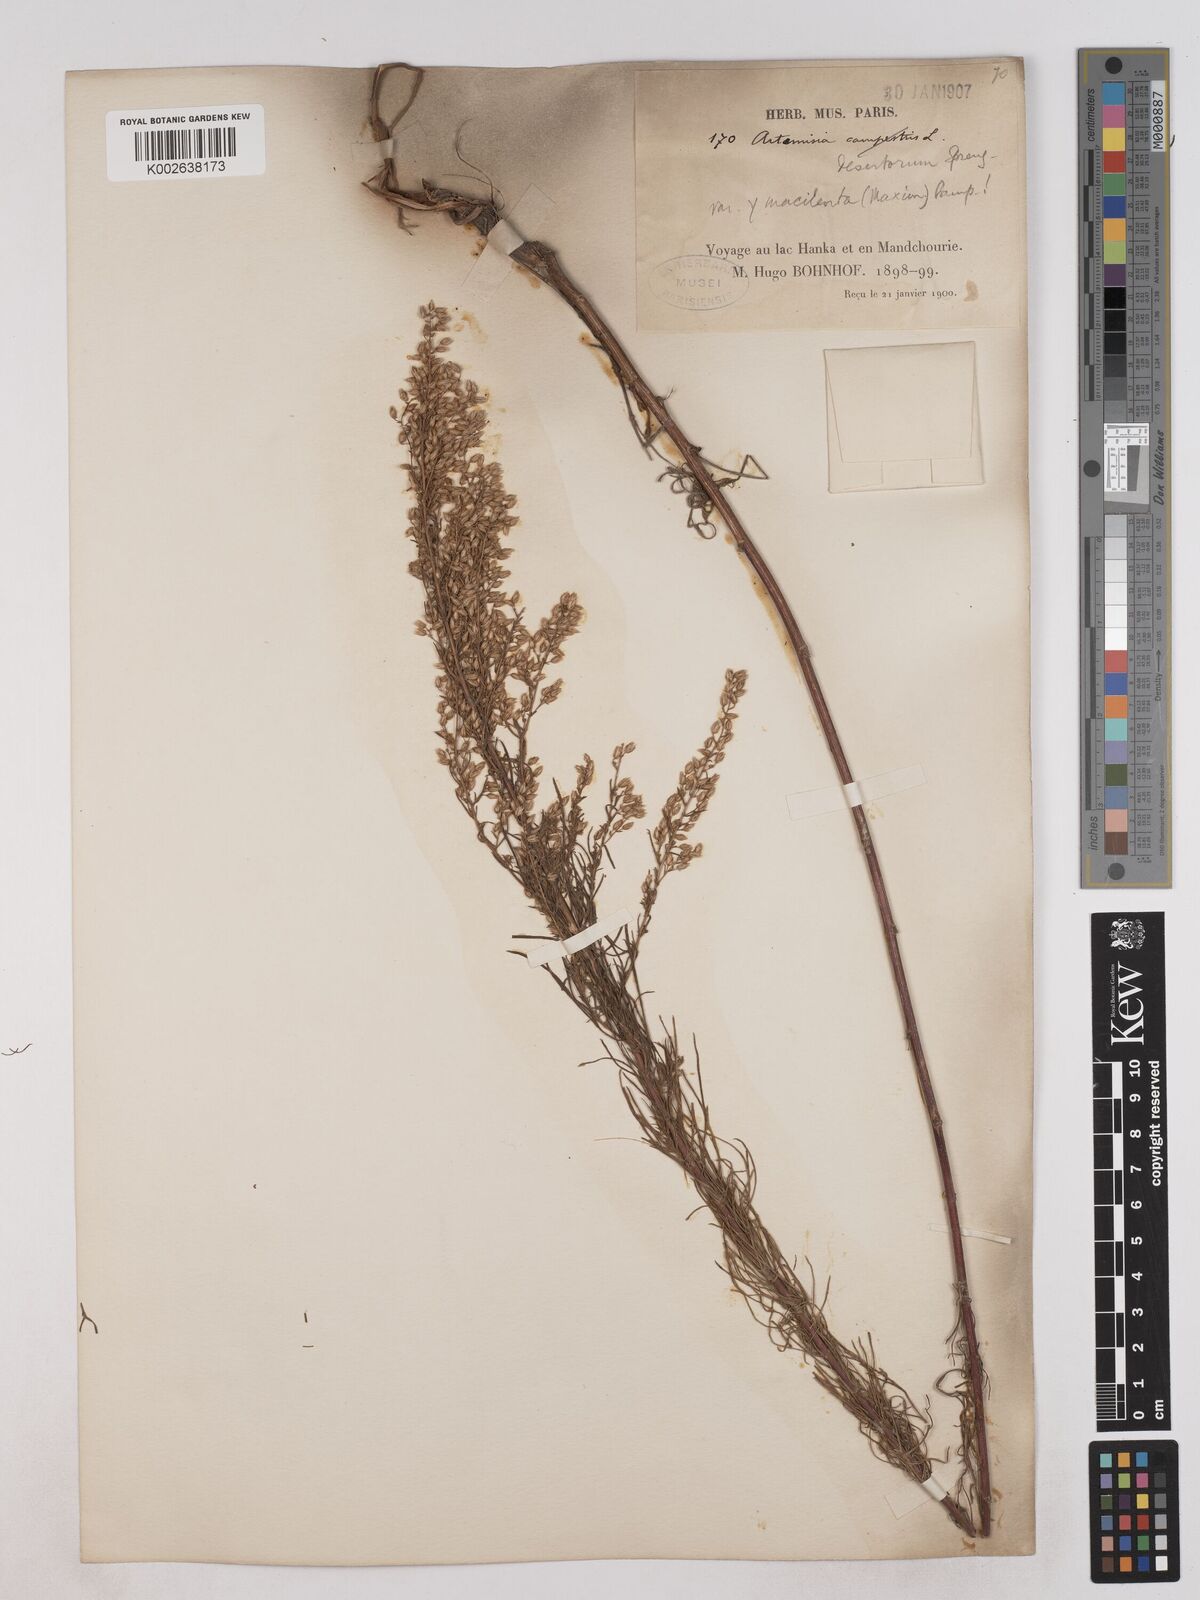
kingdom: Plantae
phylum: Tracheophyta
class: Magnoliopsida
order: Asterales
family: Asteraceae
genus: Artemisia
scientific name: Artemisia macilenta
